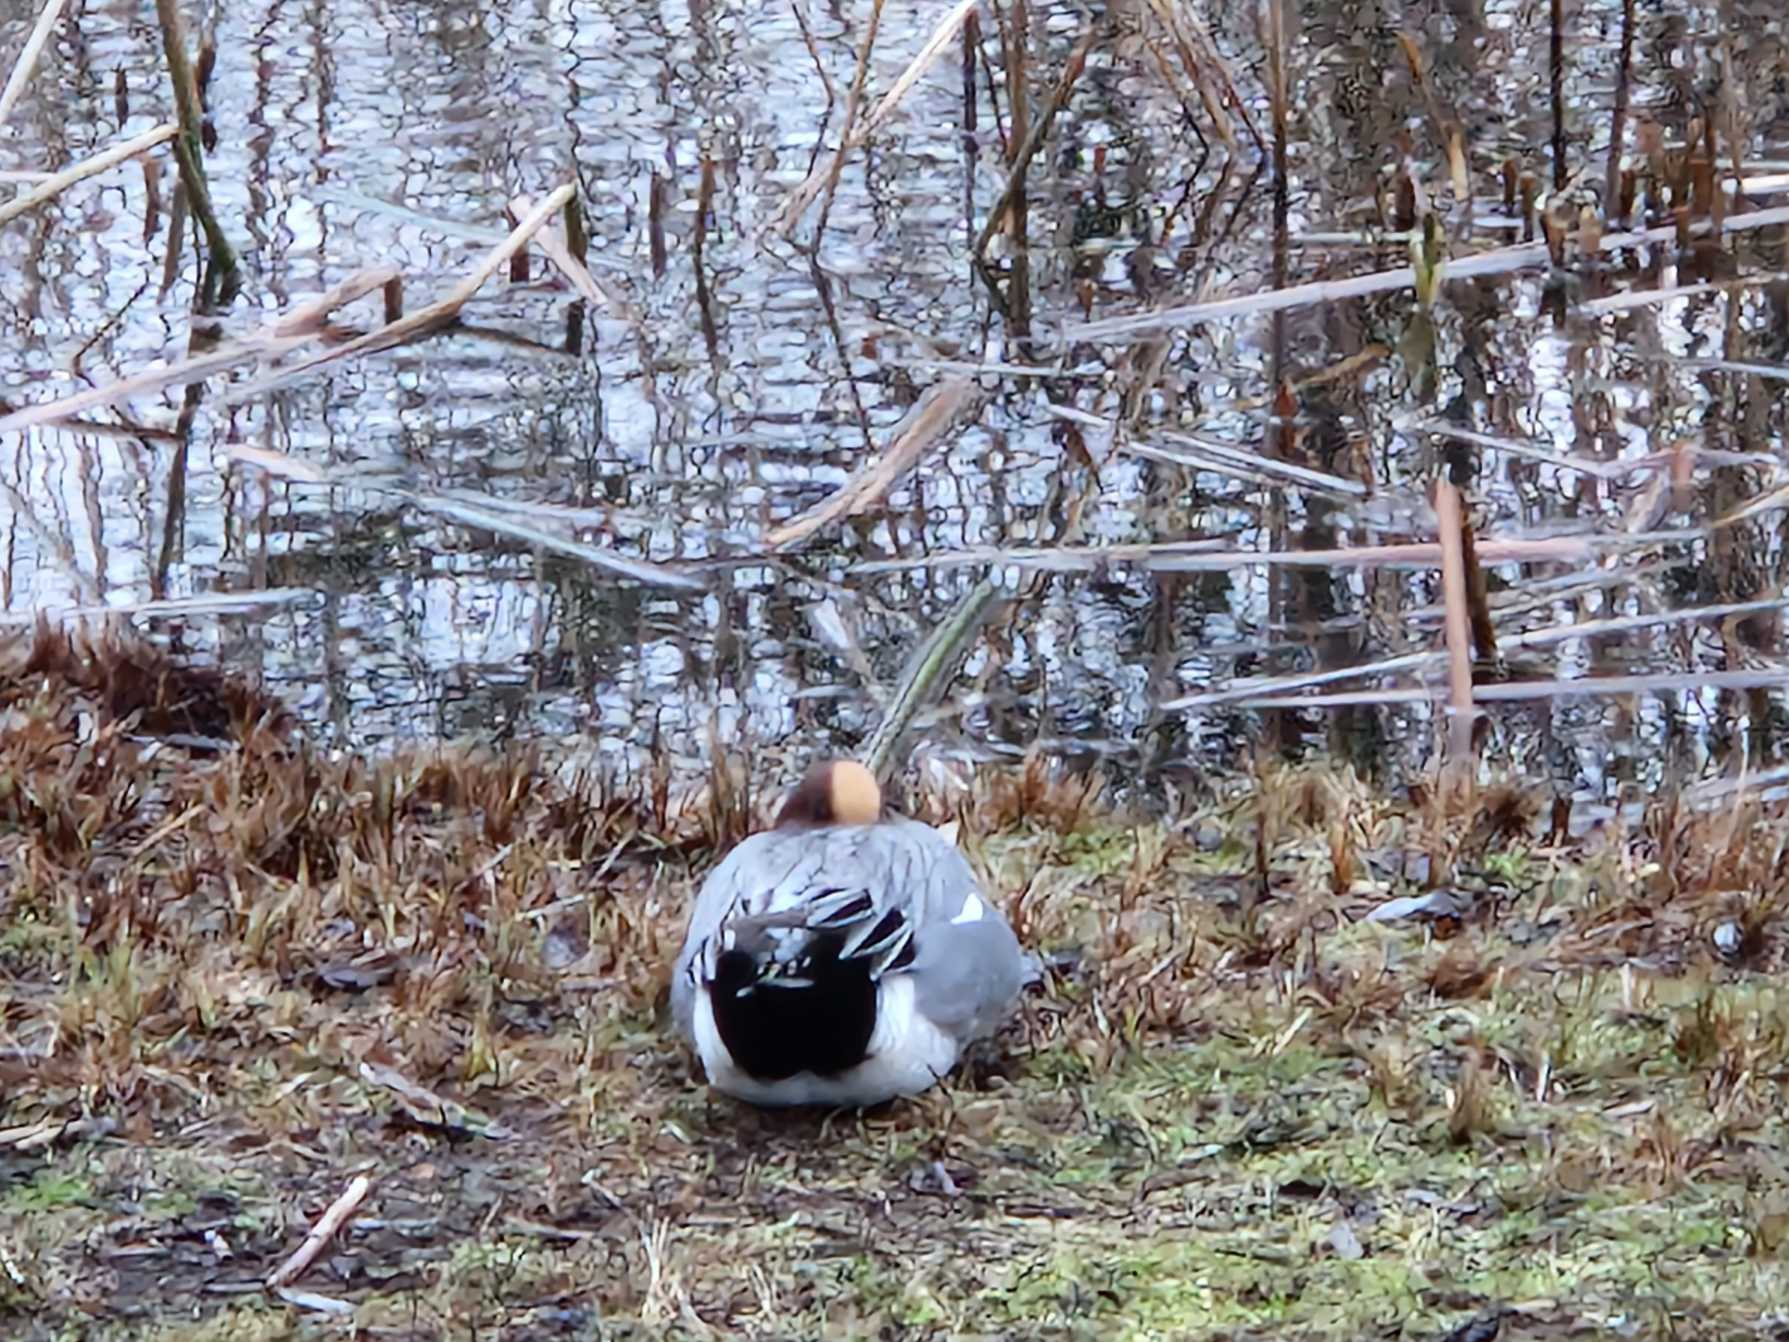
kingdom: Animalia
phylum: Chordata
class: Aves
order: Anseriformes
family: Anatidae
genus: Mareca
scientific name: Mareca penelope
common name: Pibeand
